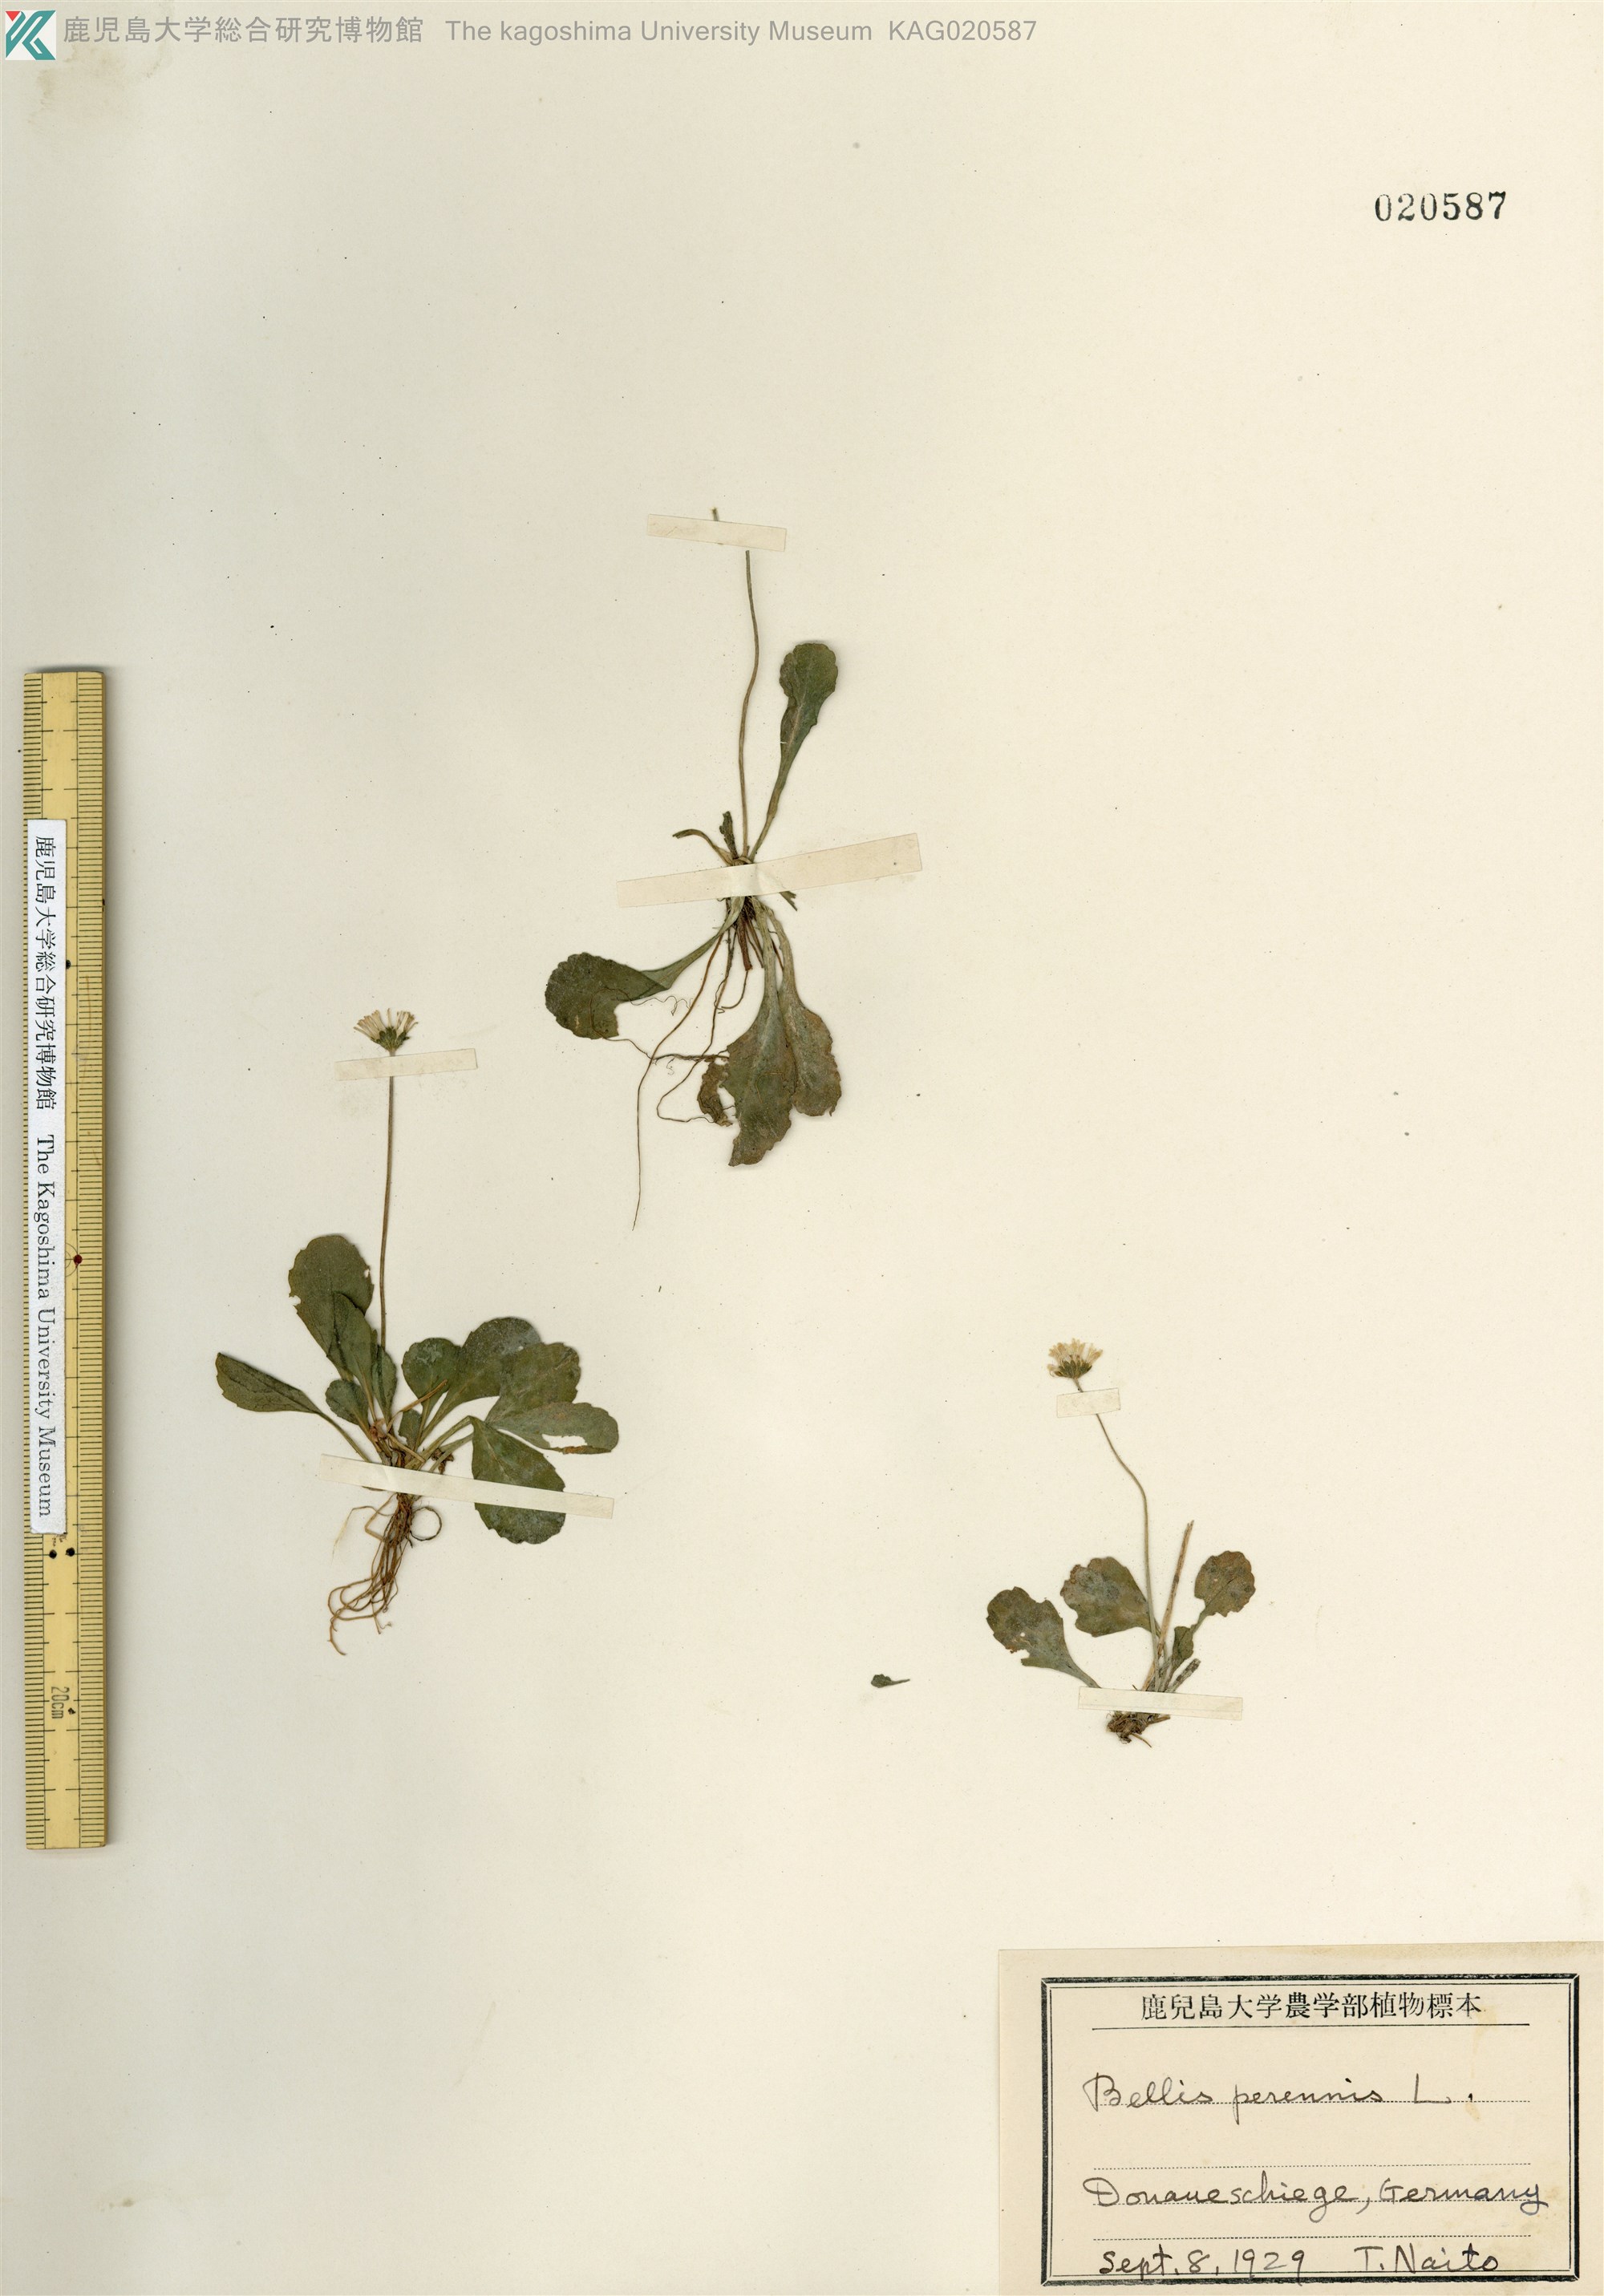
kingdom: Plantae
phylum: Tracheophyta
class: Magnoliopsida
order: Asterales
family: Asteraceae
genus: Bellis
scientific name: Bellis perennis
